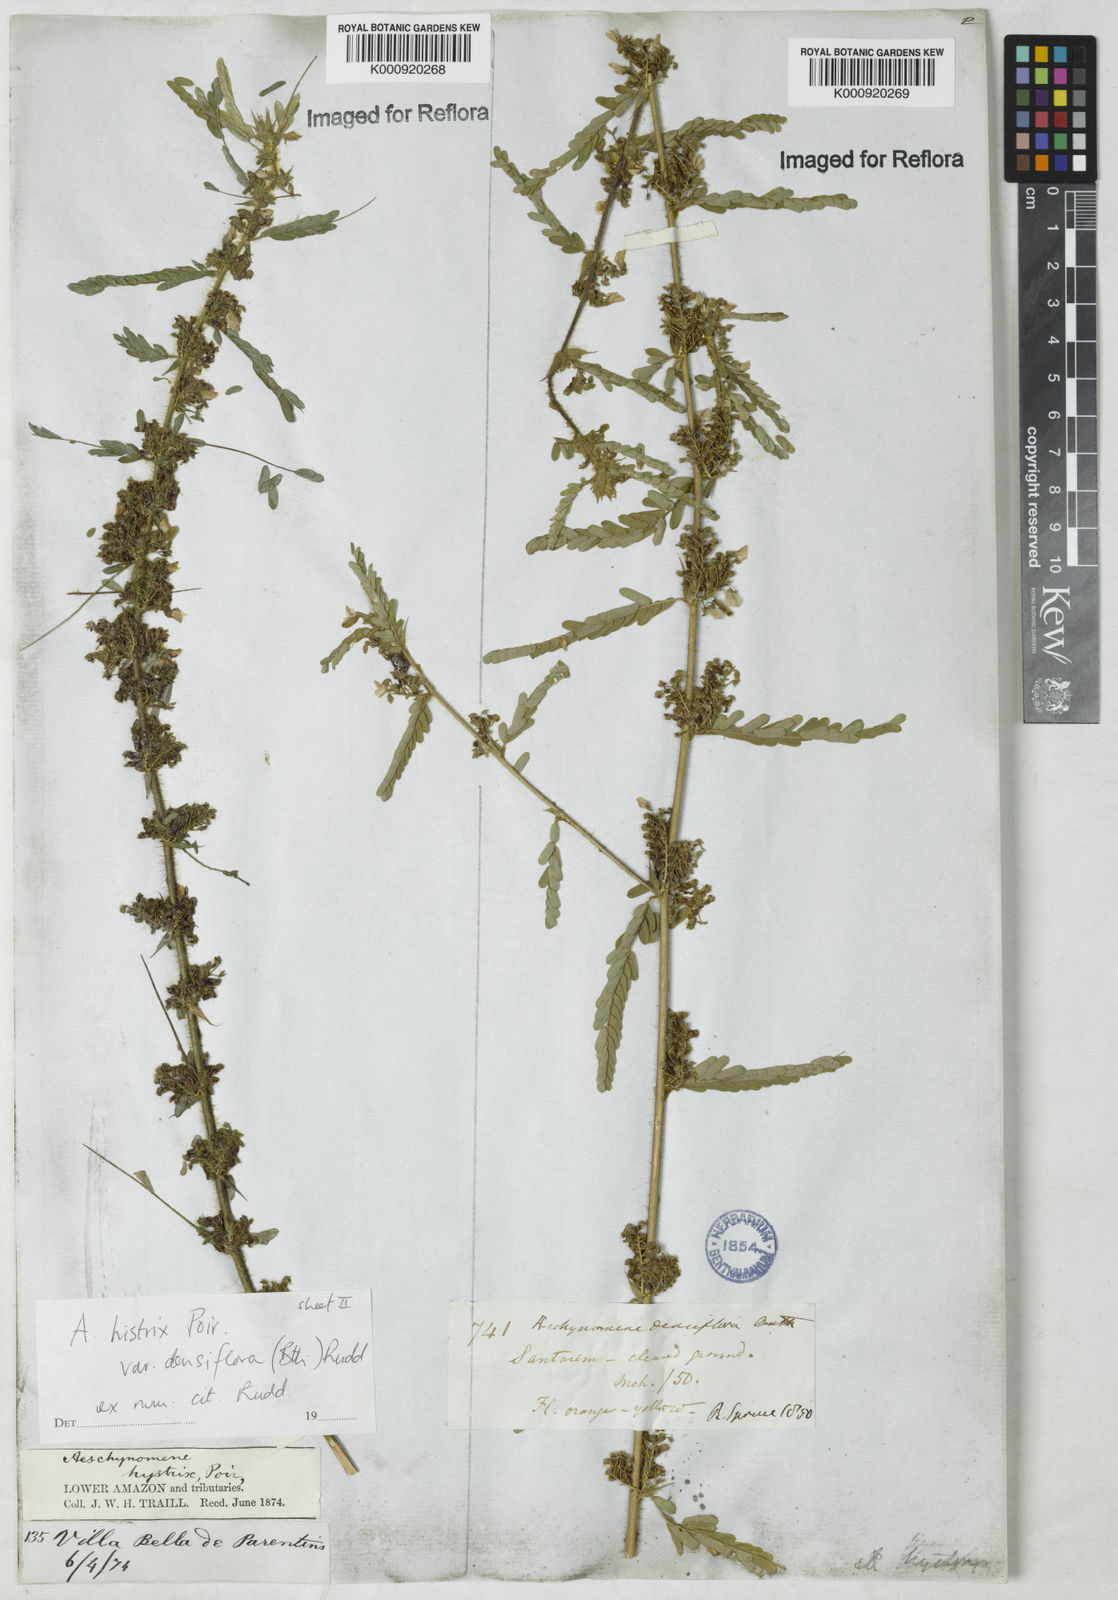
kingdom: Plantae
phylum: Tracheophyta
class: Magnoliopsida
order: Fabales
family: Fabaceae
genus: Ctenodon
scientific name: Ctenodon histrix
